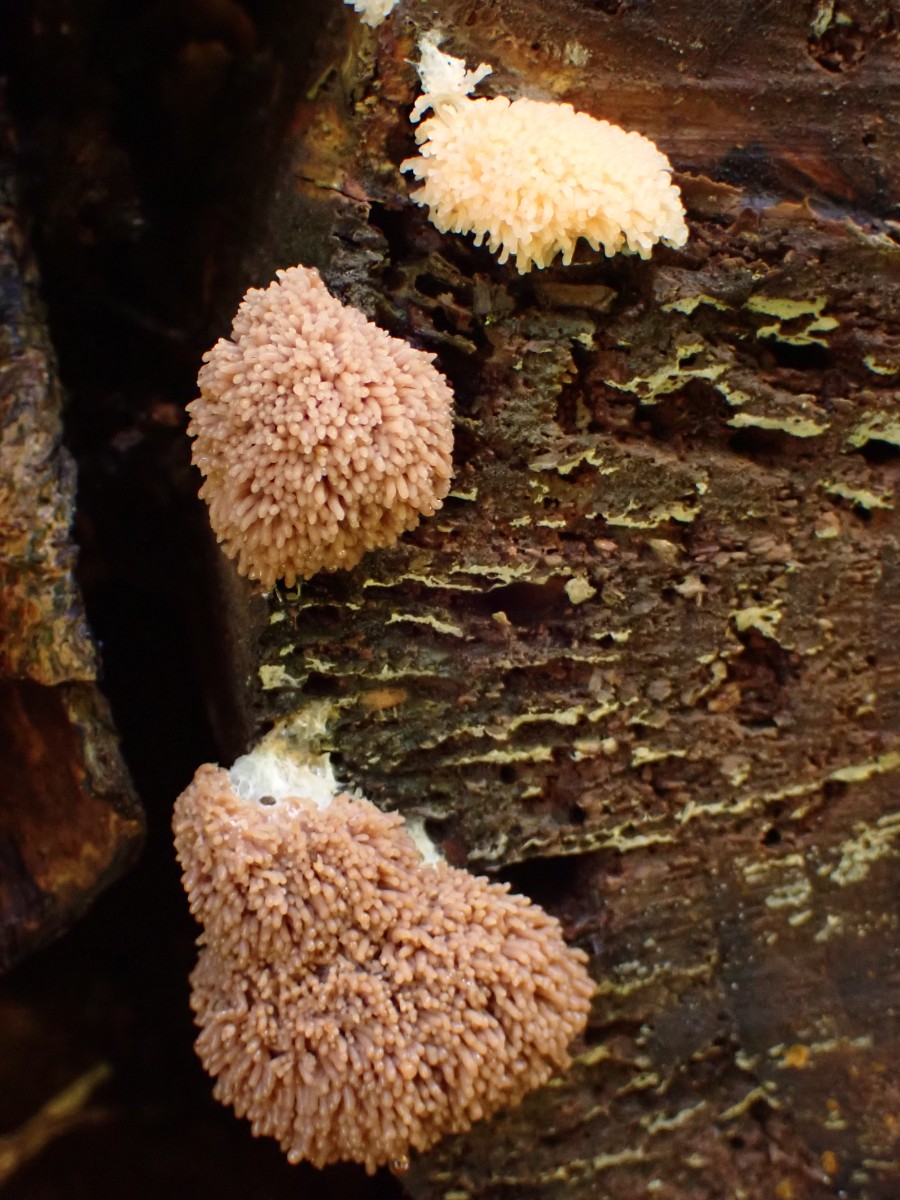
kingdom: Protozoa
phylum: Mycetozoa
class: Myxomycetes
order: Cribrariales
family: Tubiferaceae
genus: Tubifera
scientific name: Tubifera ferruginosa
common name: kanel-støvrør
